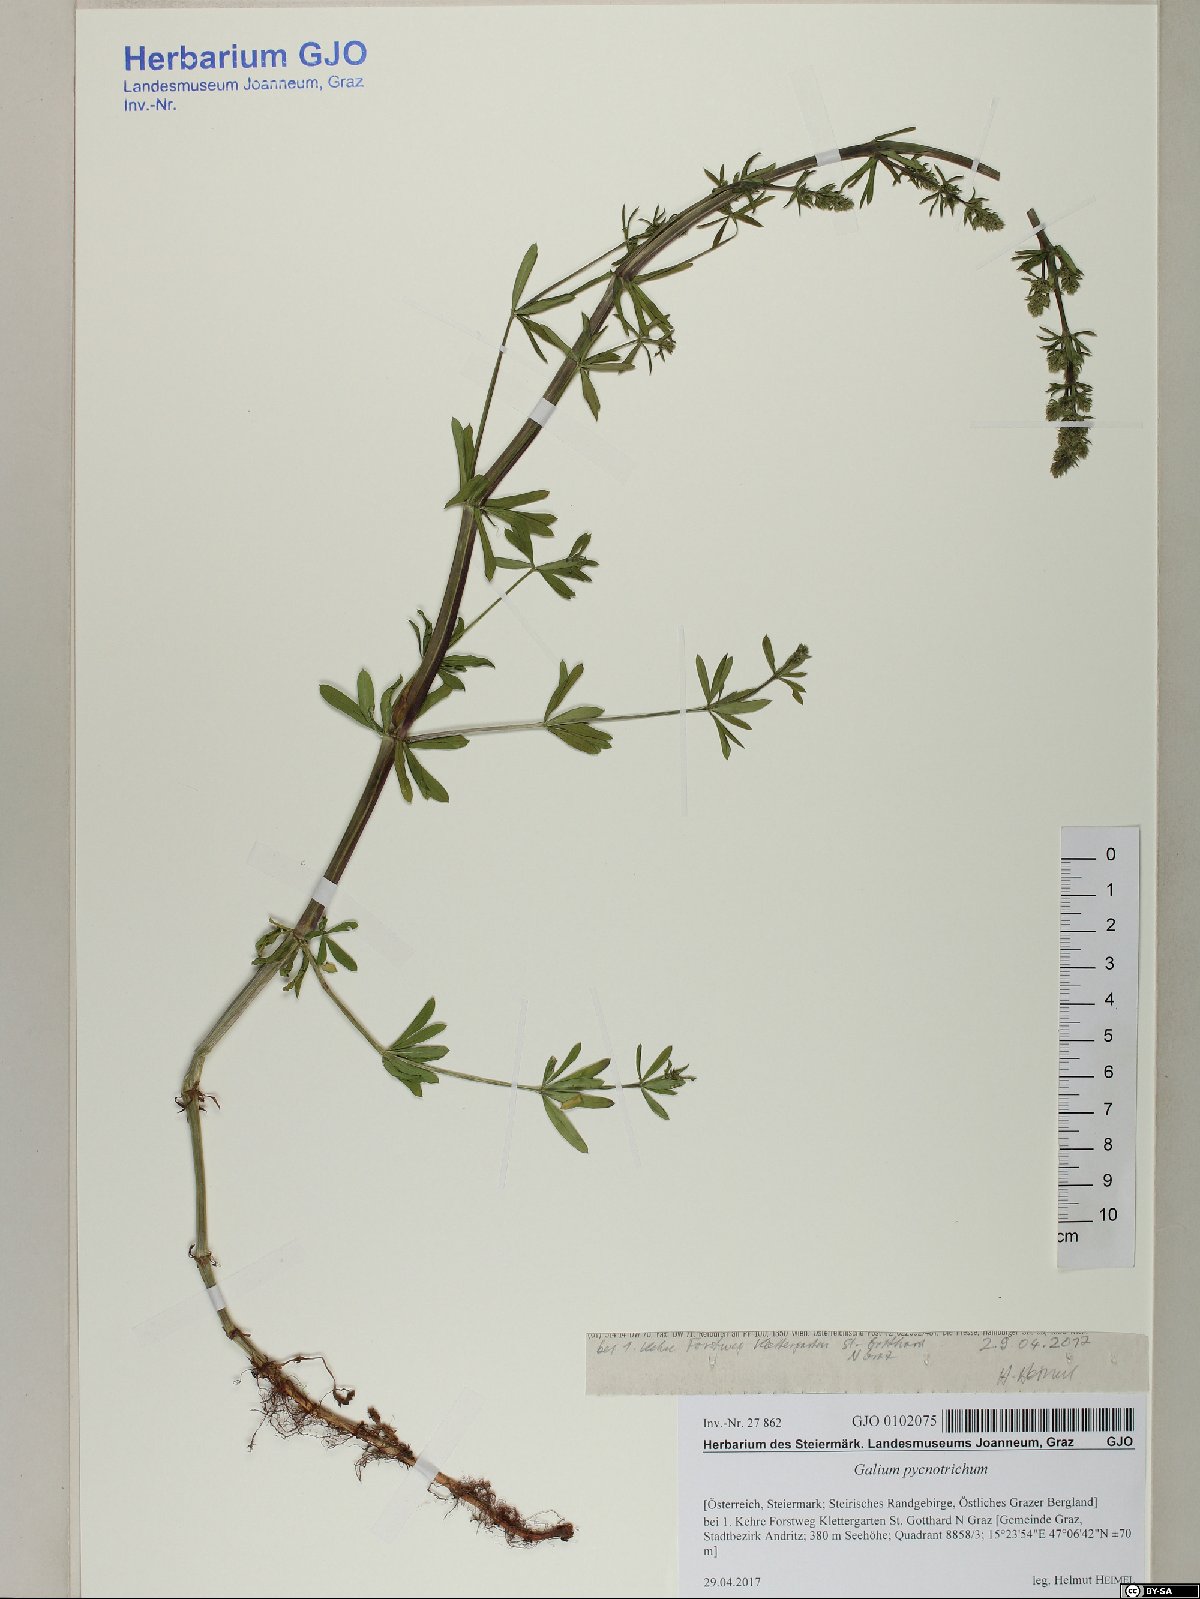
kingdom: Plantae
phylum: Tracheophyta
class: Magnoliopsida
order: Gentianales
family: Rubiaceae
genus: Galium
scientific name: Galium album
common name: White bedstraw
